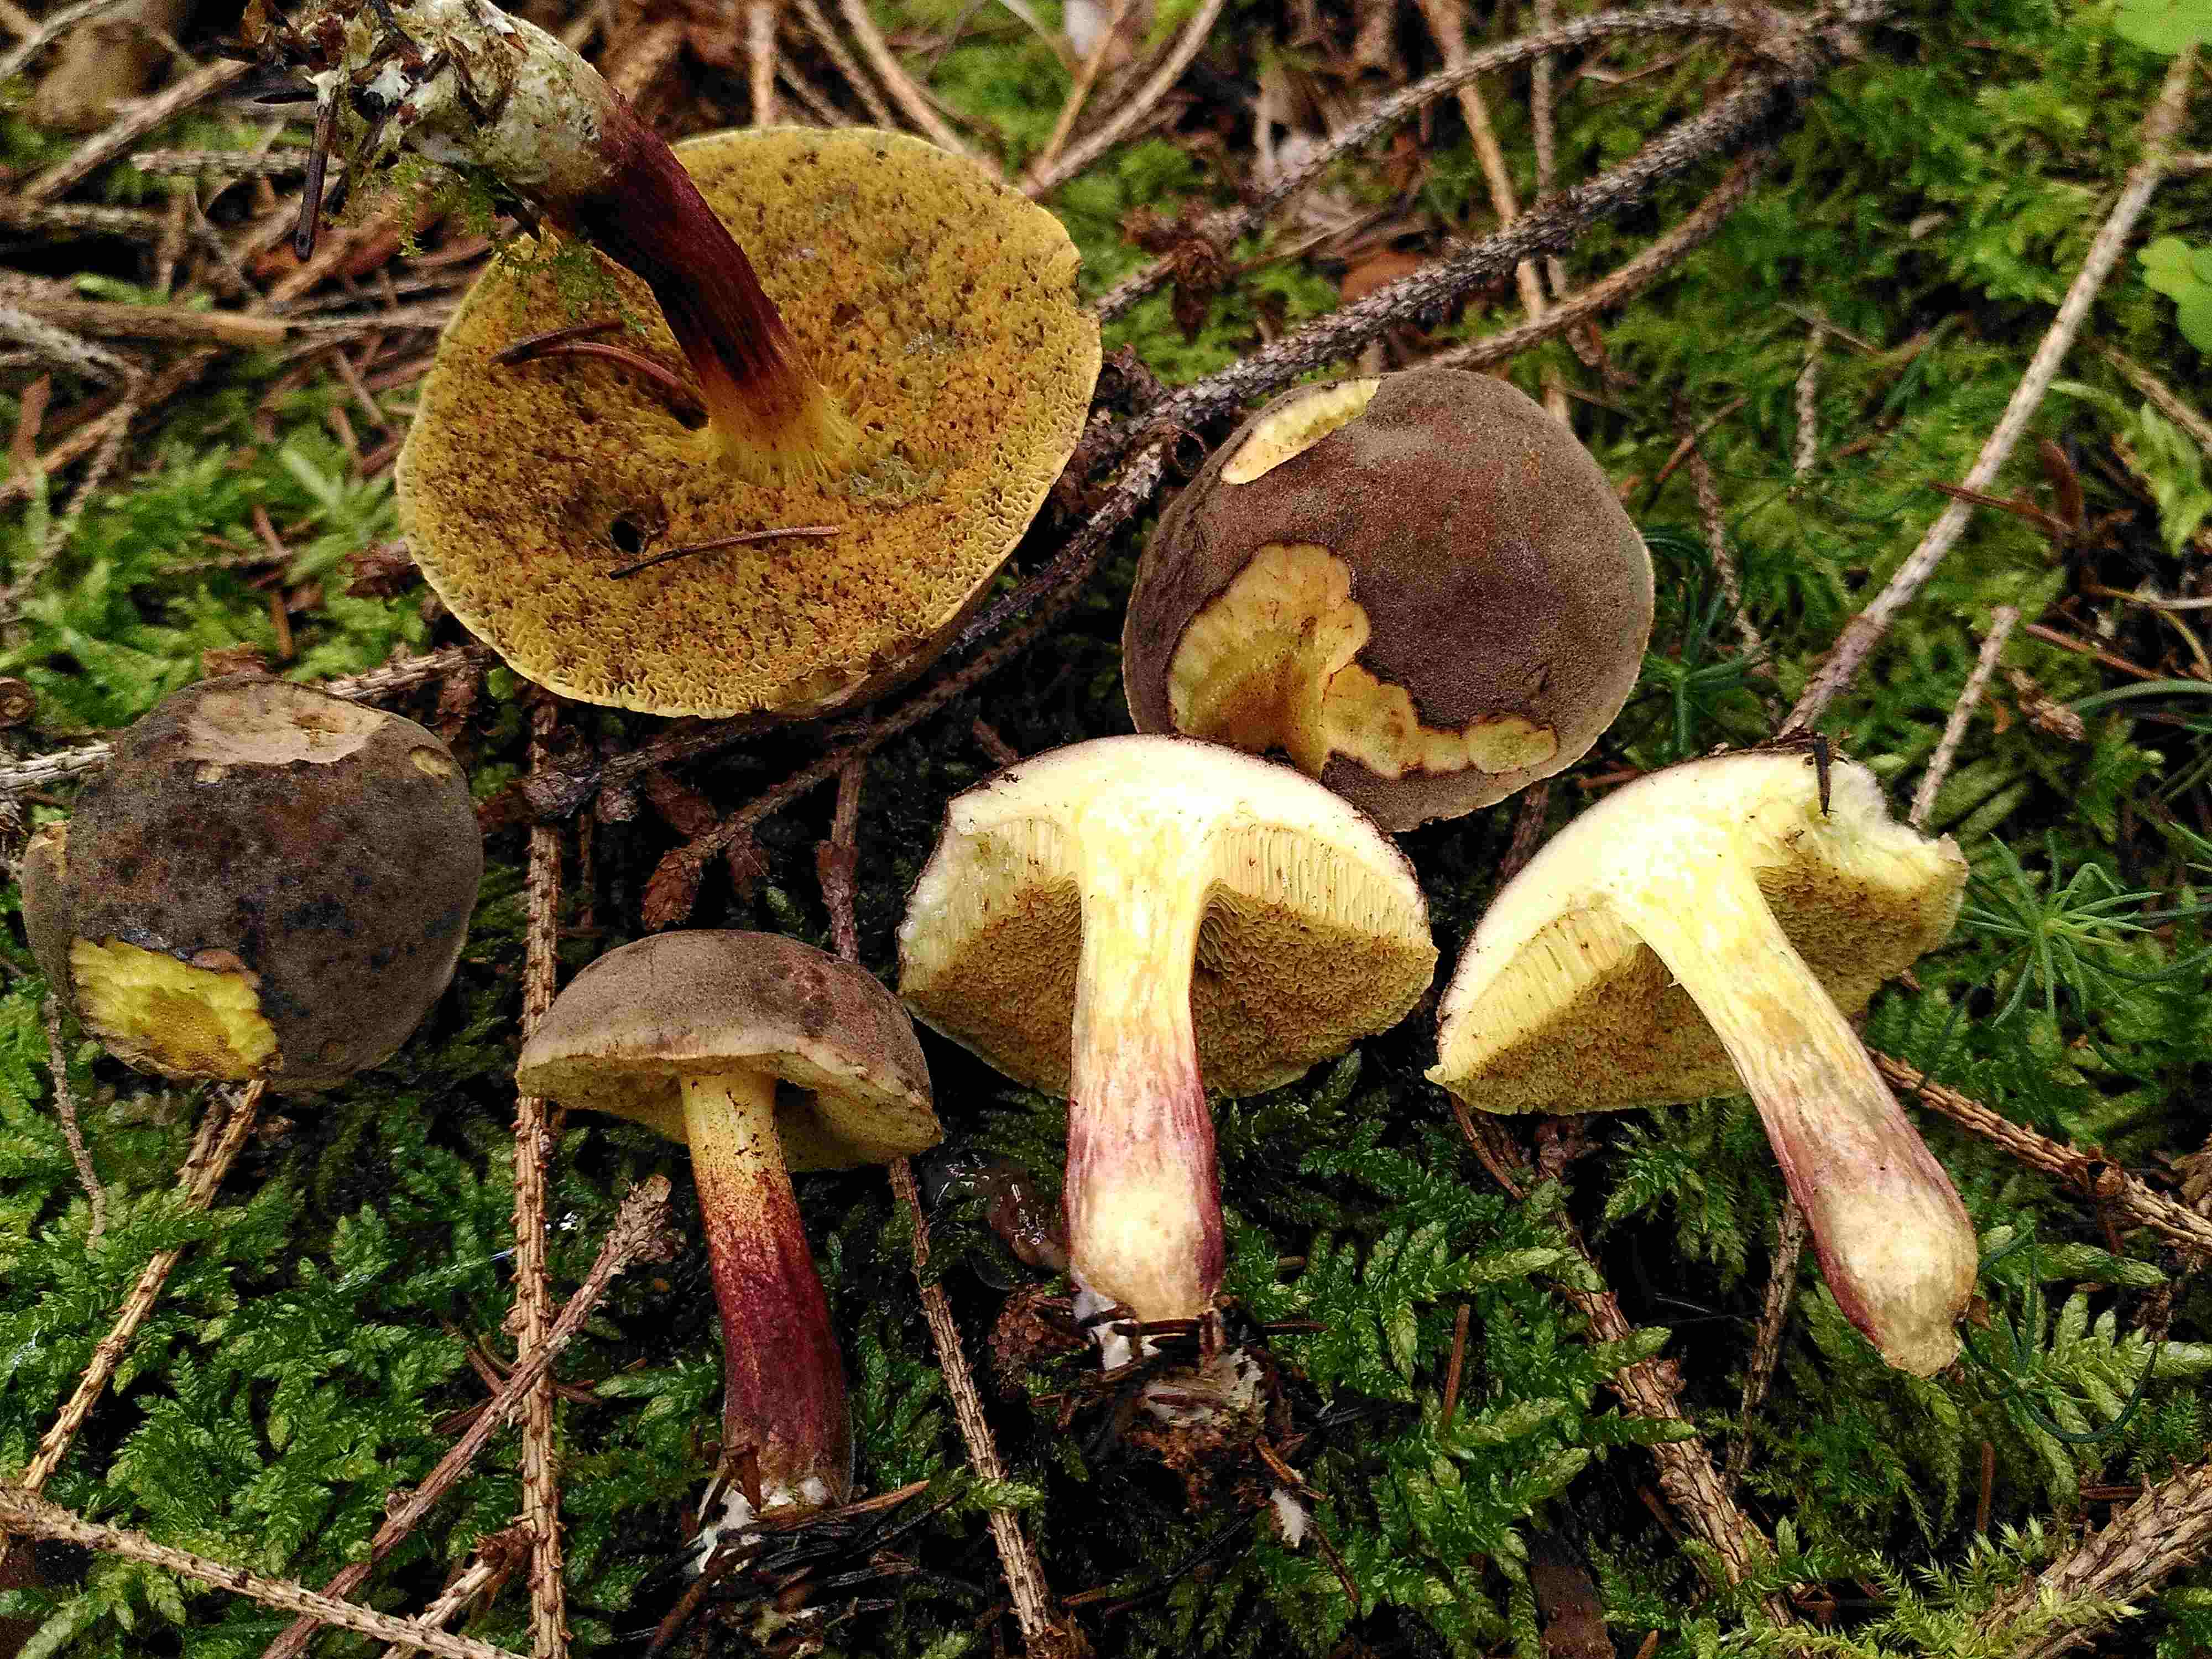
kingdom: Fungi
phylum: Basidiomycota
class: Agaricomycetes
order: Boletales
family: Boletaceae
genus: Xerocomellus
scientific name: Xerocomellus chrysenteron
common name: rødsprukken rørhat
